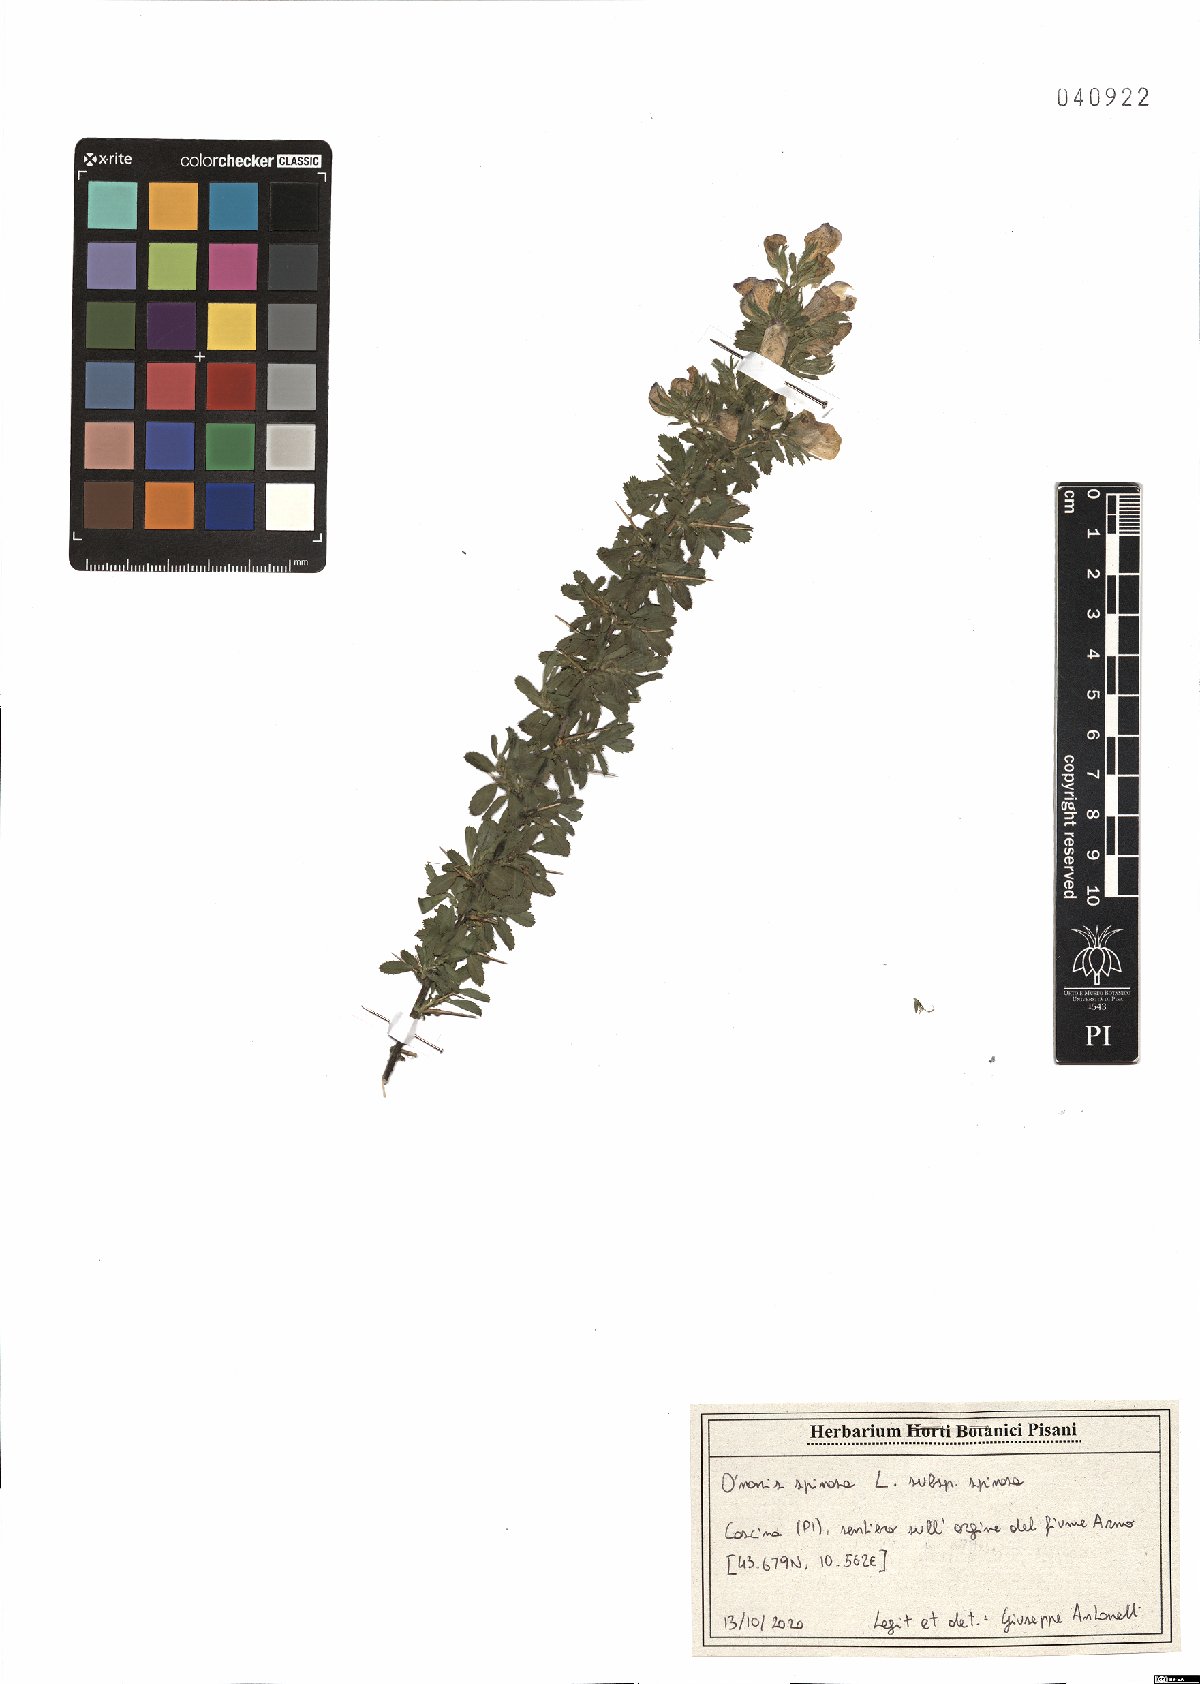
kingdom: Plantae
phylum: Tracheophyta
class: Magnoliopsida
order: Fabales
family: Fabaceae
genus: Ononis
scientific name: Ononis spinosa
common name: Spiny restharrow
